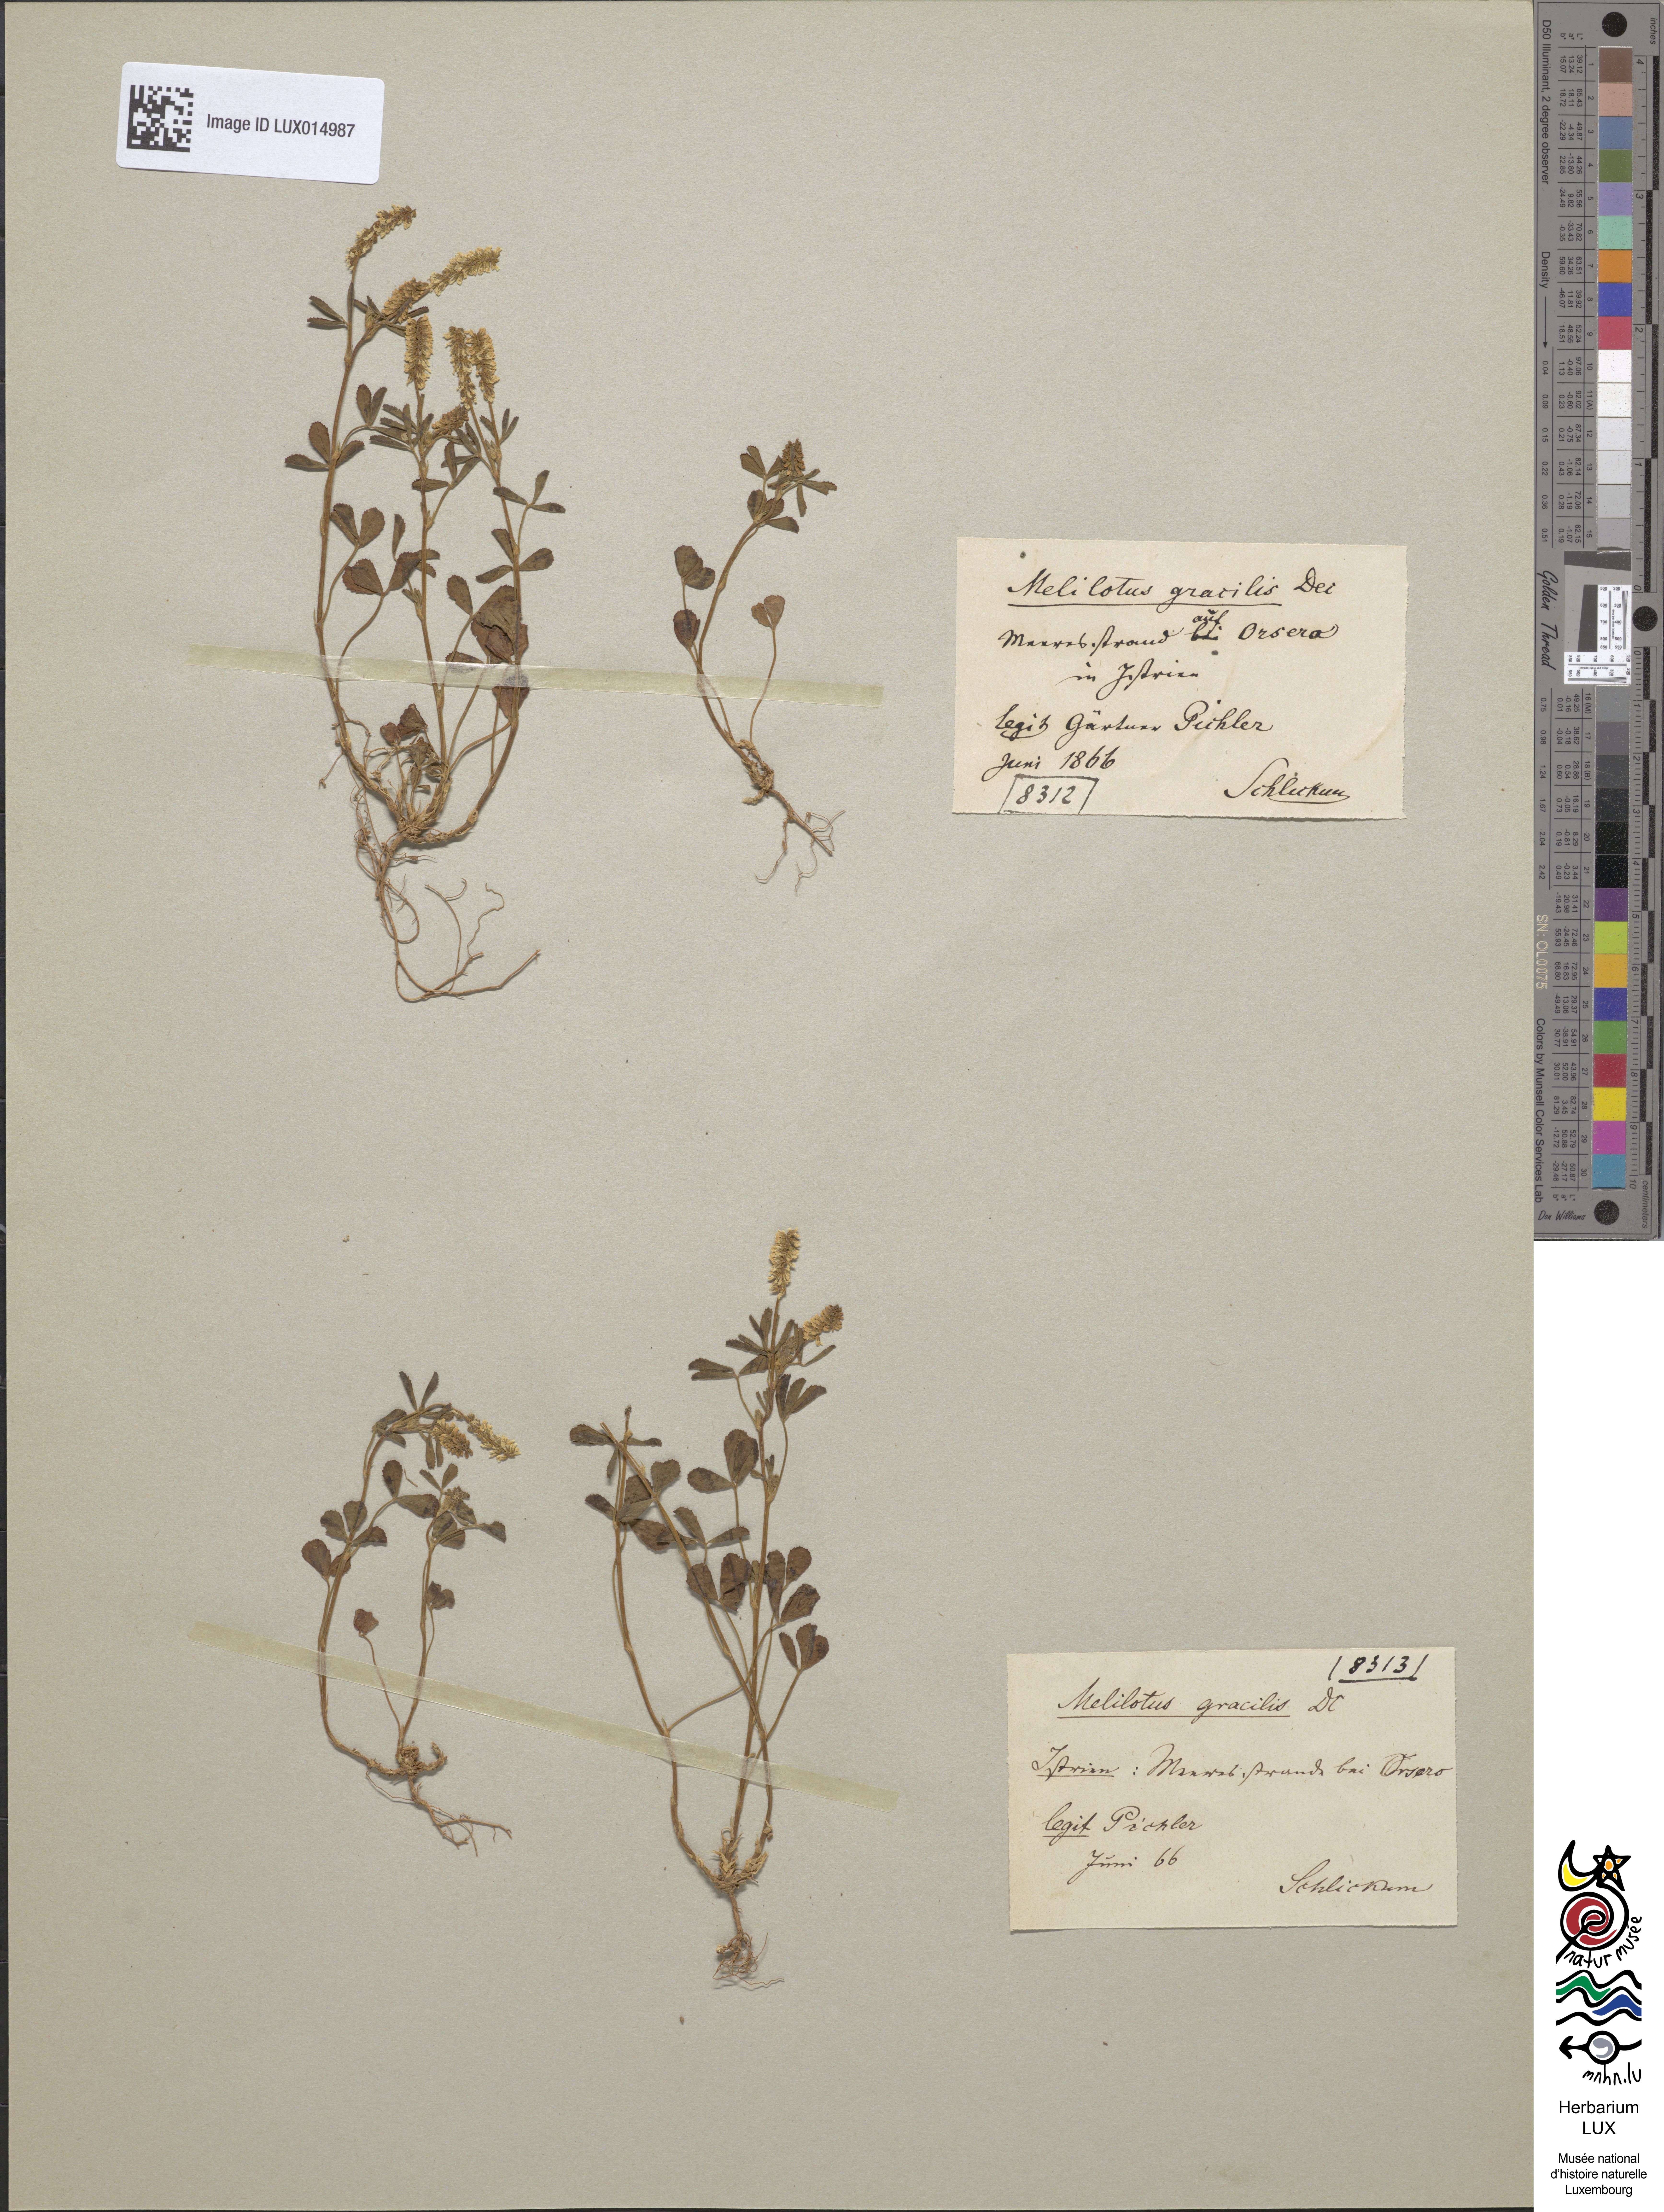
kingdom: Plantae
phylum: Tracheophyta
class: Magnoliopsida
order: Fabales
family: Fabaceae
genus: Melilotus
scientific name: Melilotus neapolitanus
